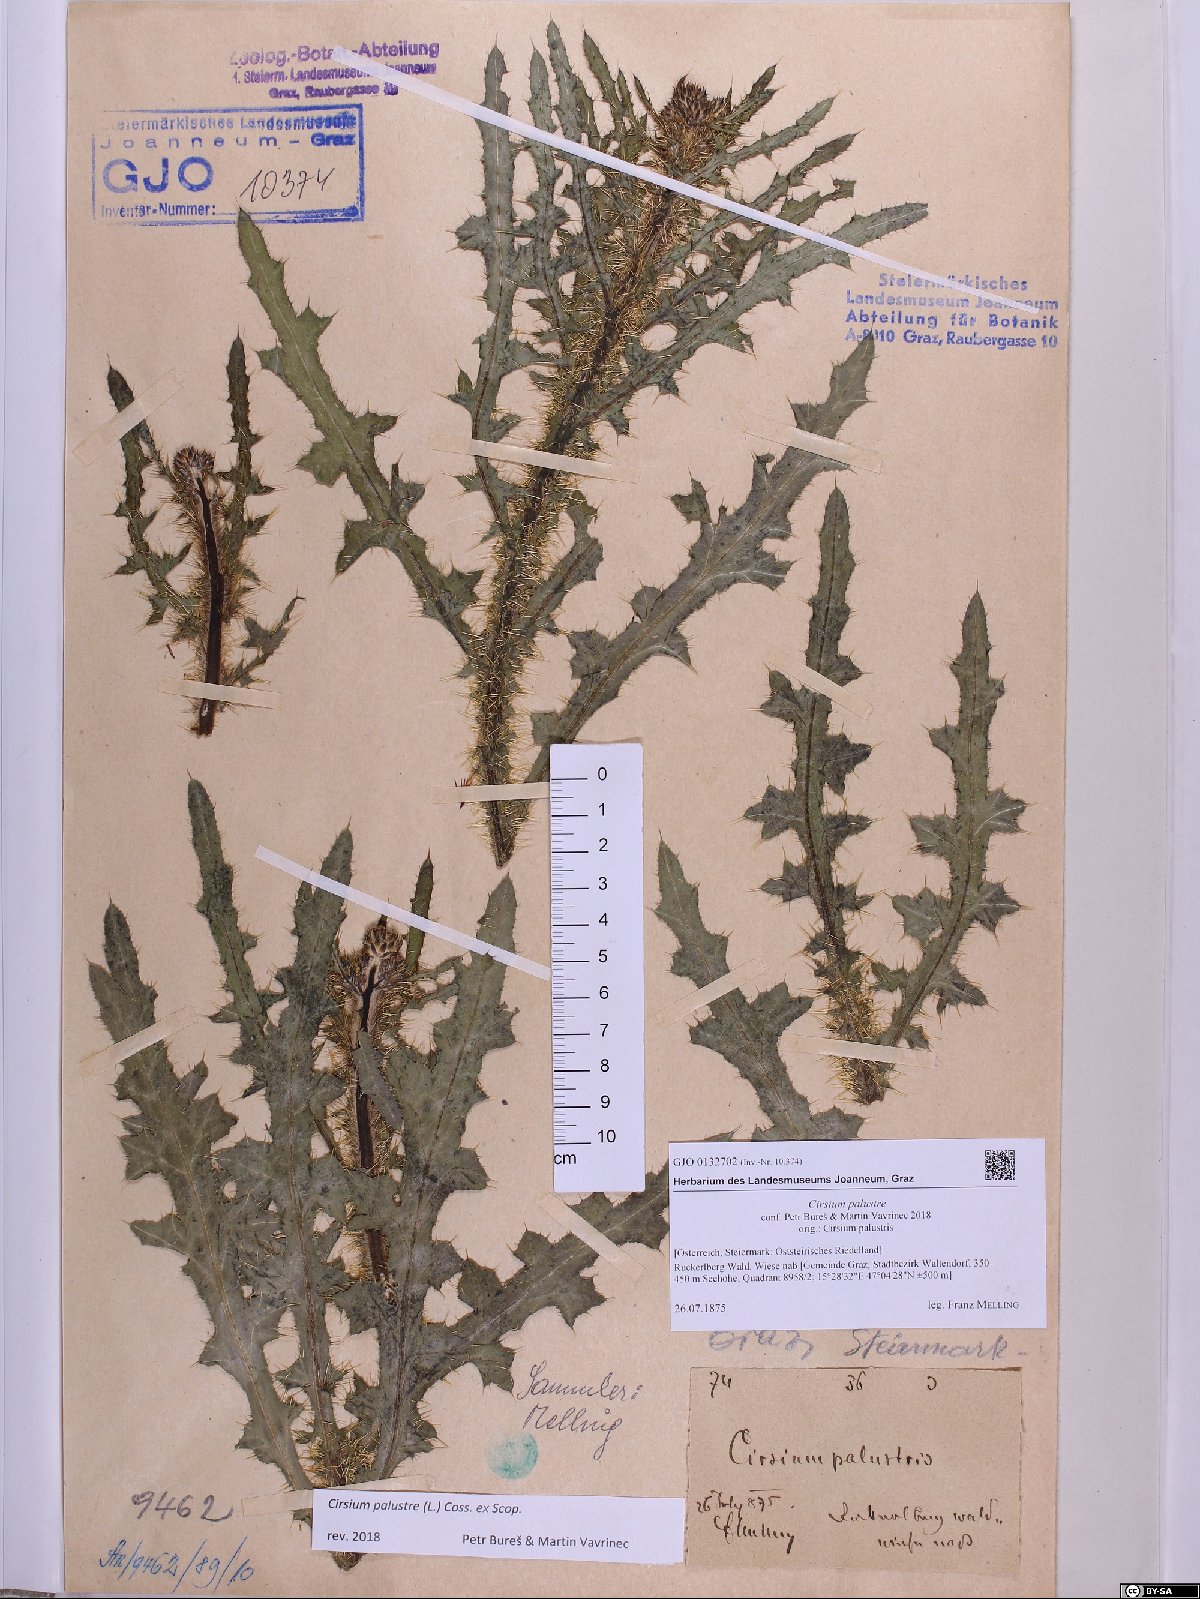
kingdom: Plantae
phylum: Tracheophyta
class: Magnoliopsida
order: Asterales
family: Asteraceae
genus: Cirsium
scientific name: Cirsium palustre
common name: Marsh thistle
